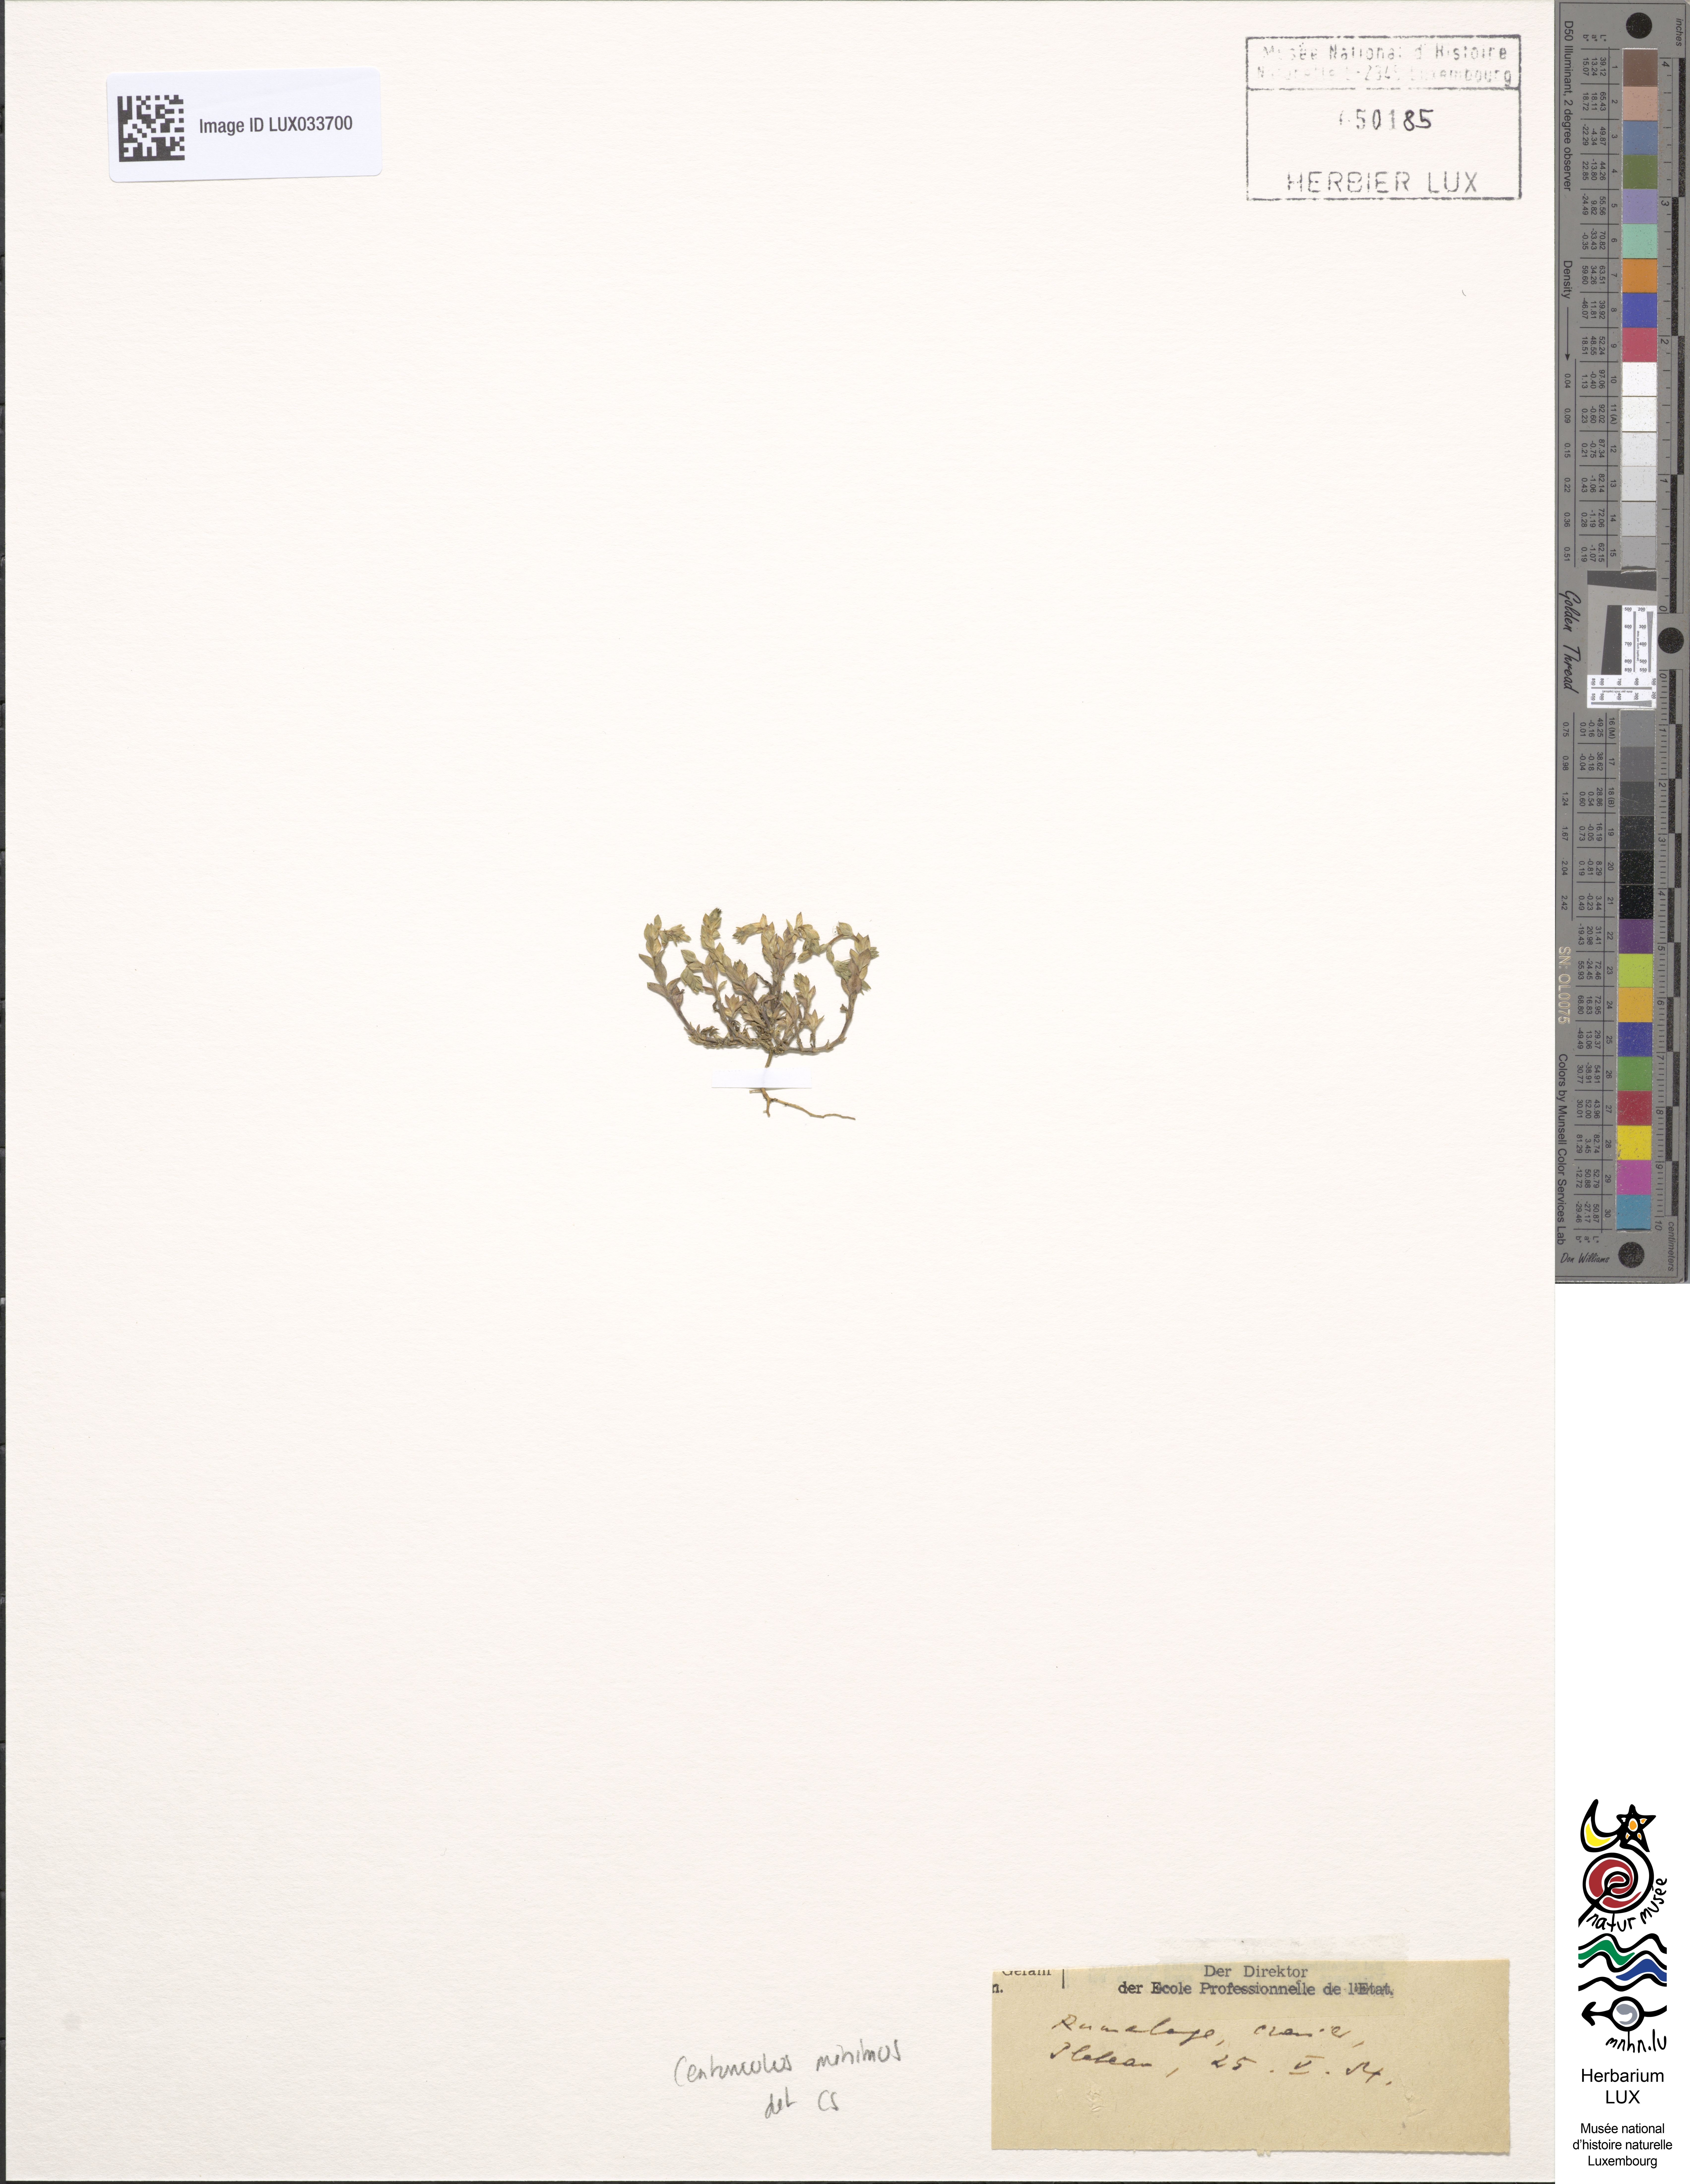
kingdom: Plantae
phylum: Tracheophyta
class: Magnoliopsida
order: Ericales
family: Primulaceae
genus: Lysimachia
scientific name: Lysimachia minima
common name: Chaffweed
